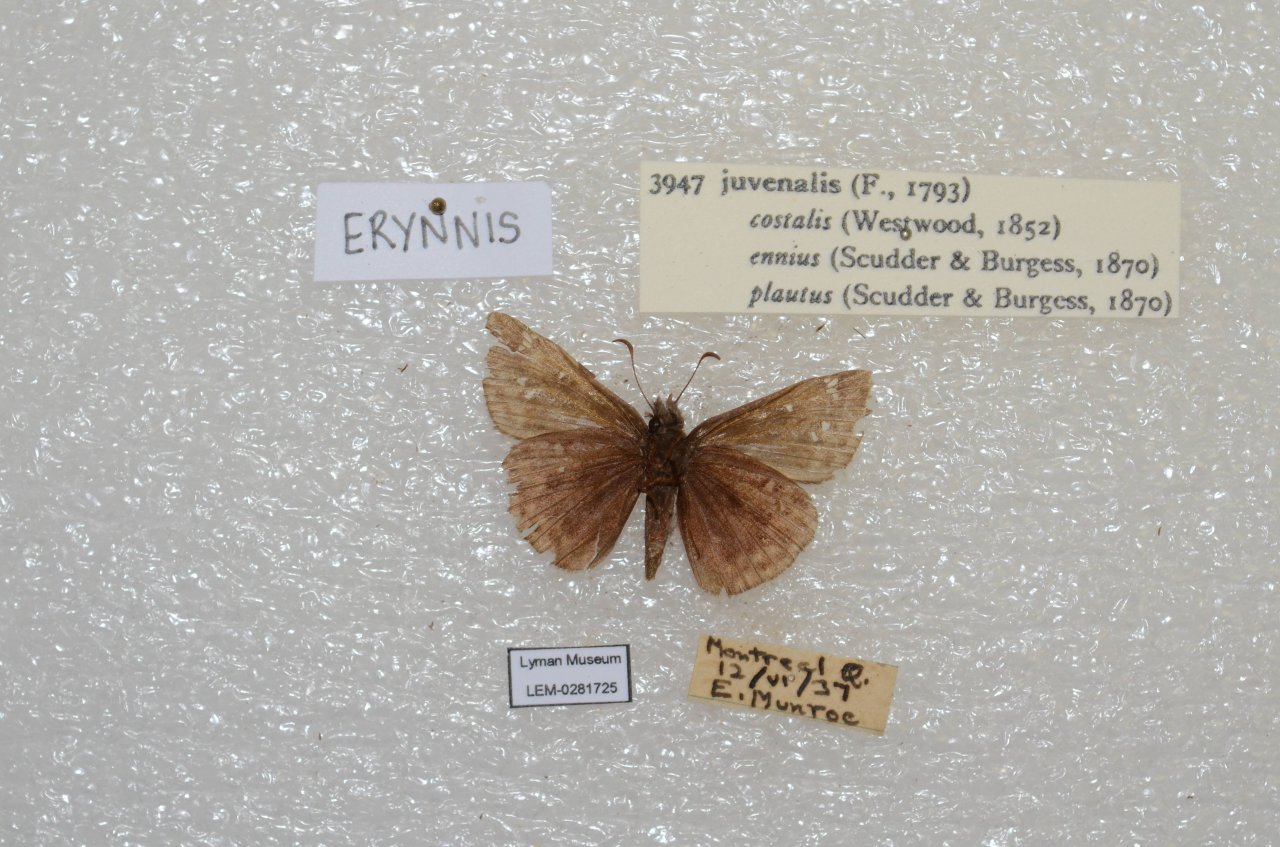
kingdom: Animalia
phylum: Arthropoda
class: Insecta
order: Lepidoptera
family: Hesperiidae
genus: Gesta
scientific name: Gesta
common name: Juvenal's Duskywing
